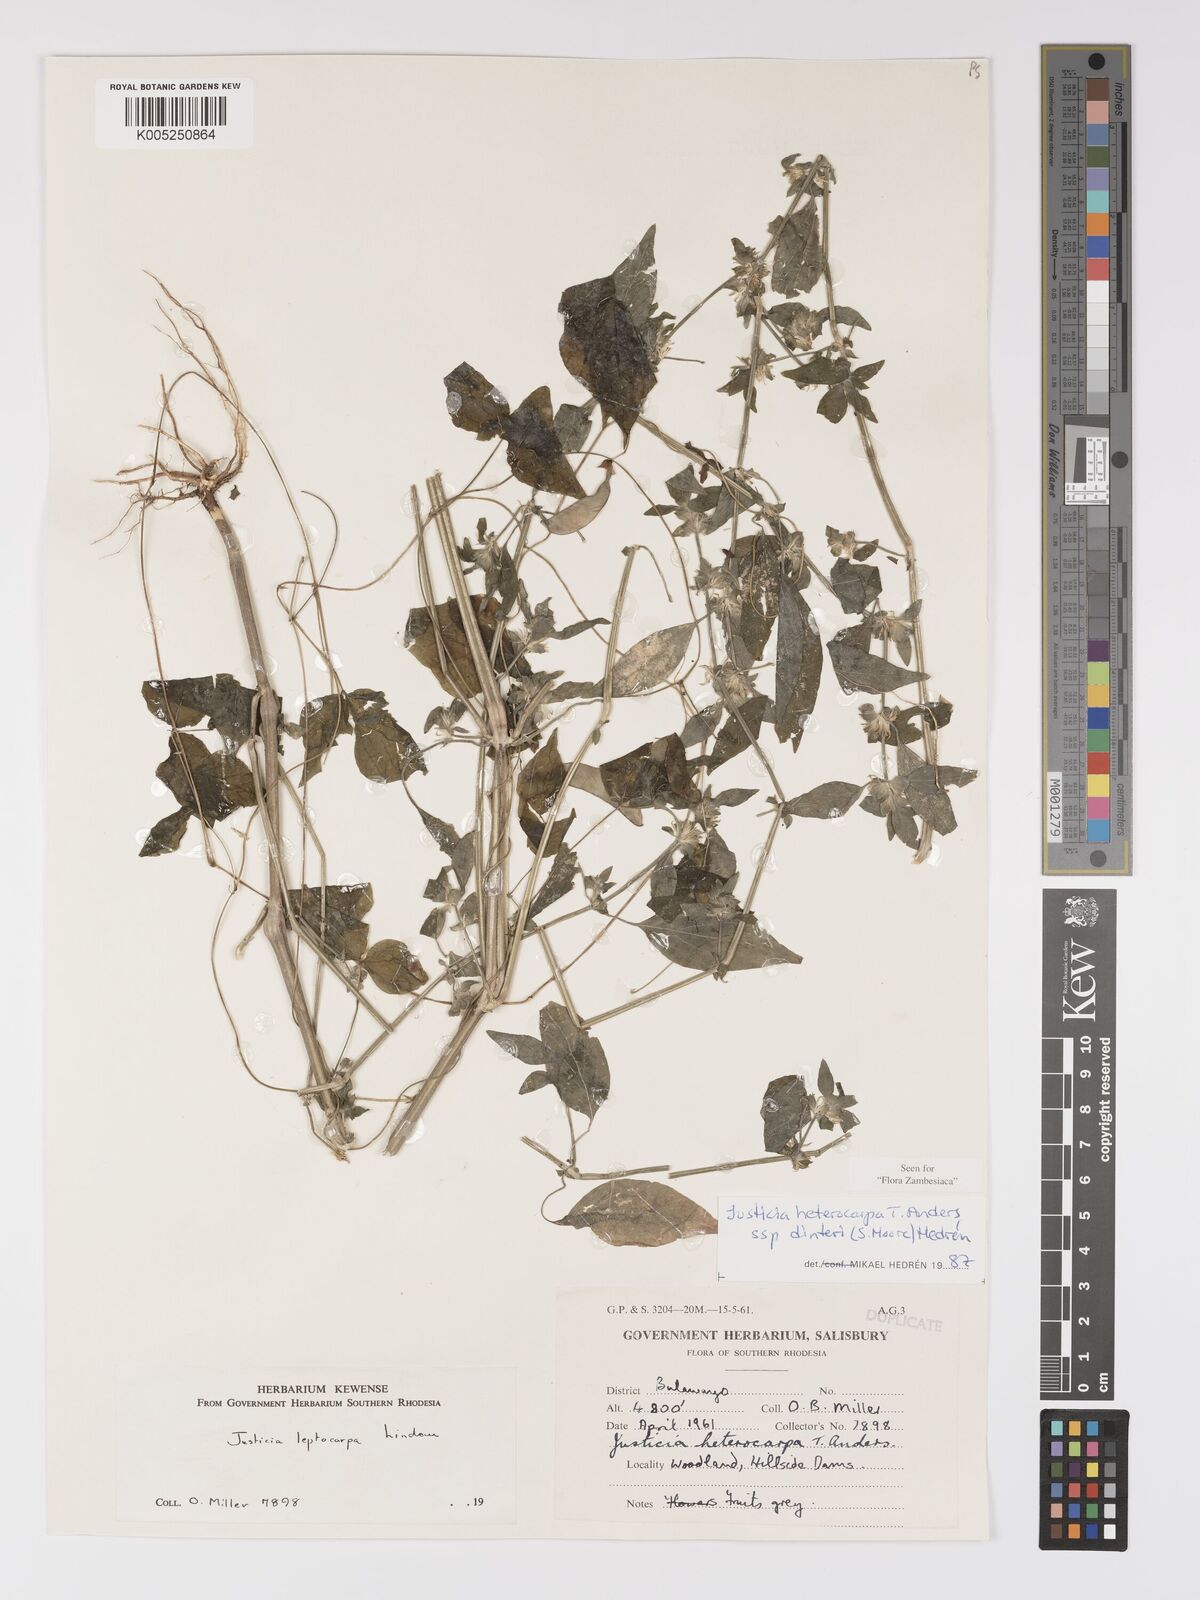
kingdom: Plantae
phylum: Tracheophyta
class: Magnoliopsida
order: Lamiales
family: Acanthaceae
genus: Justicia
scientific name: Justicia heterocarpa
